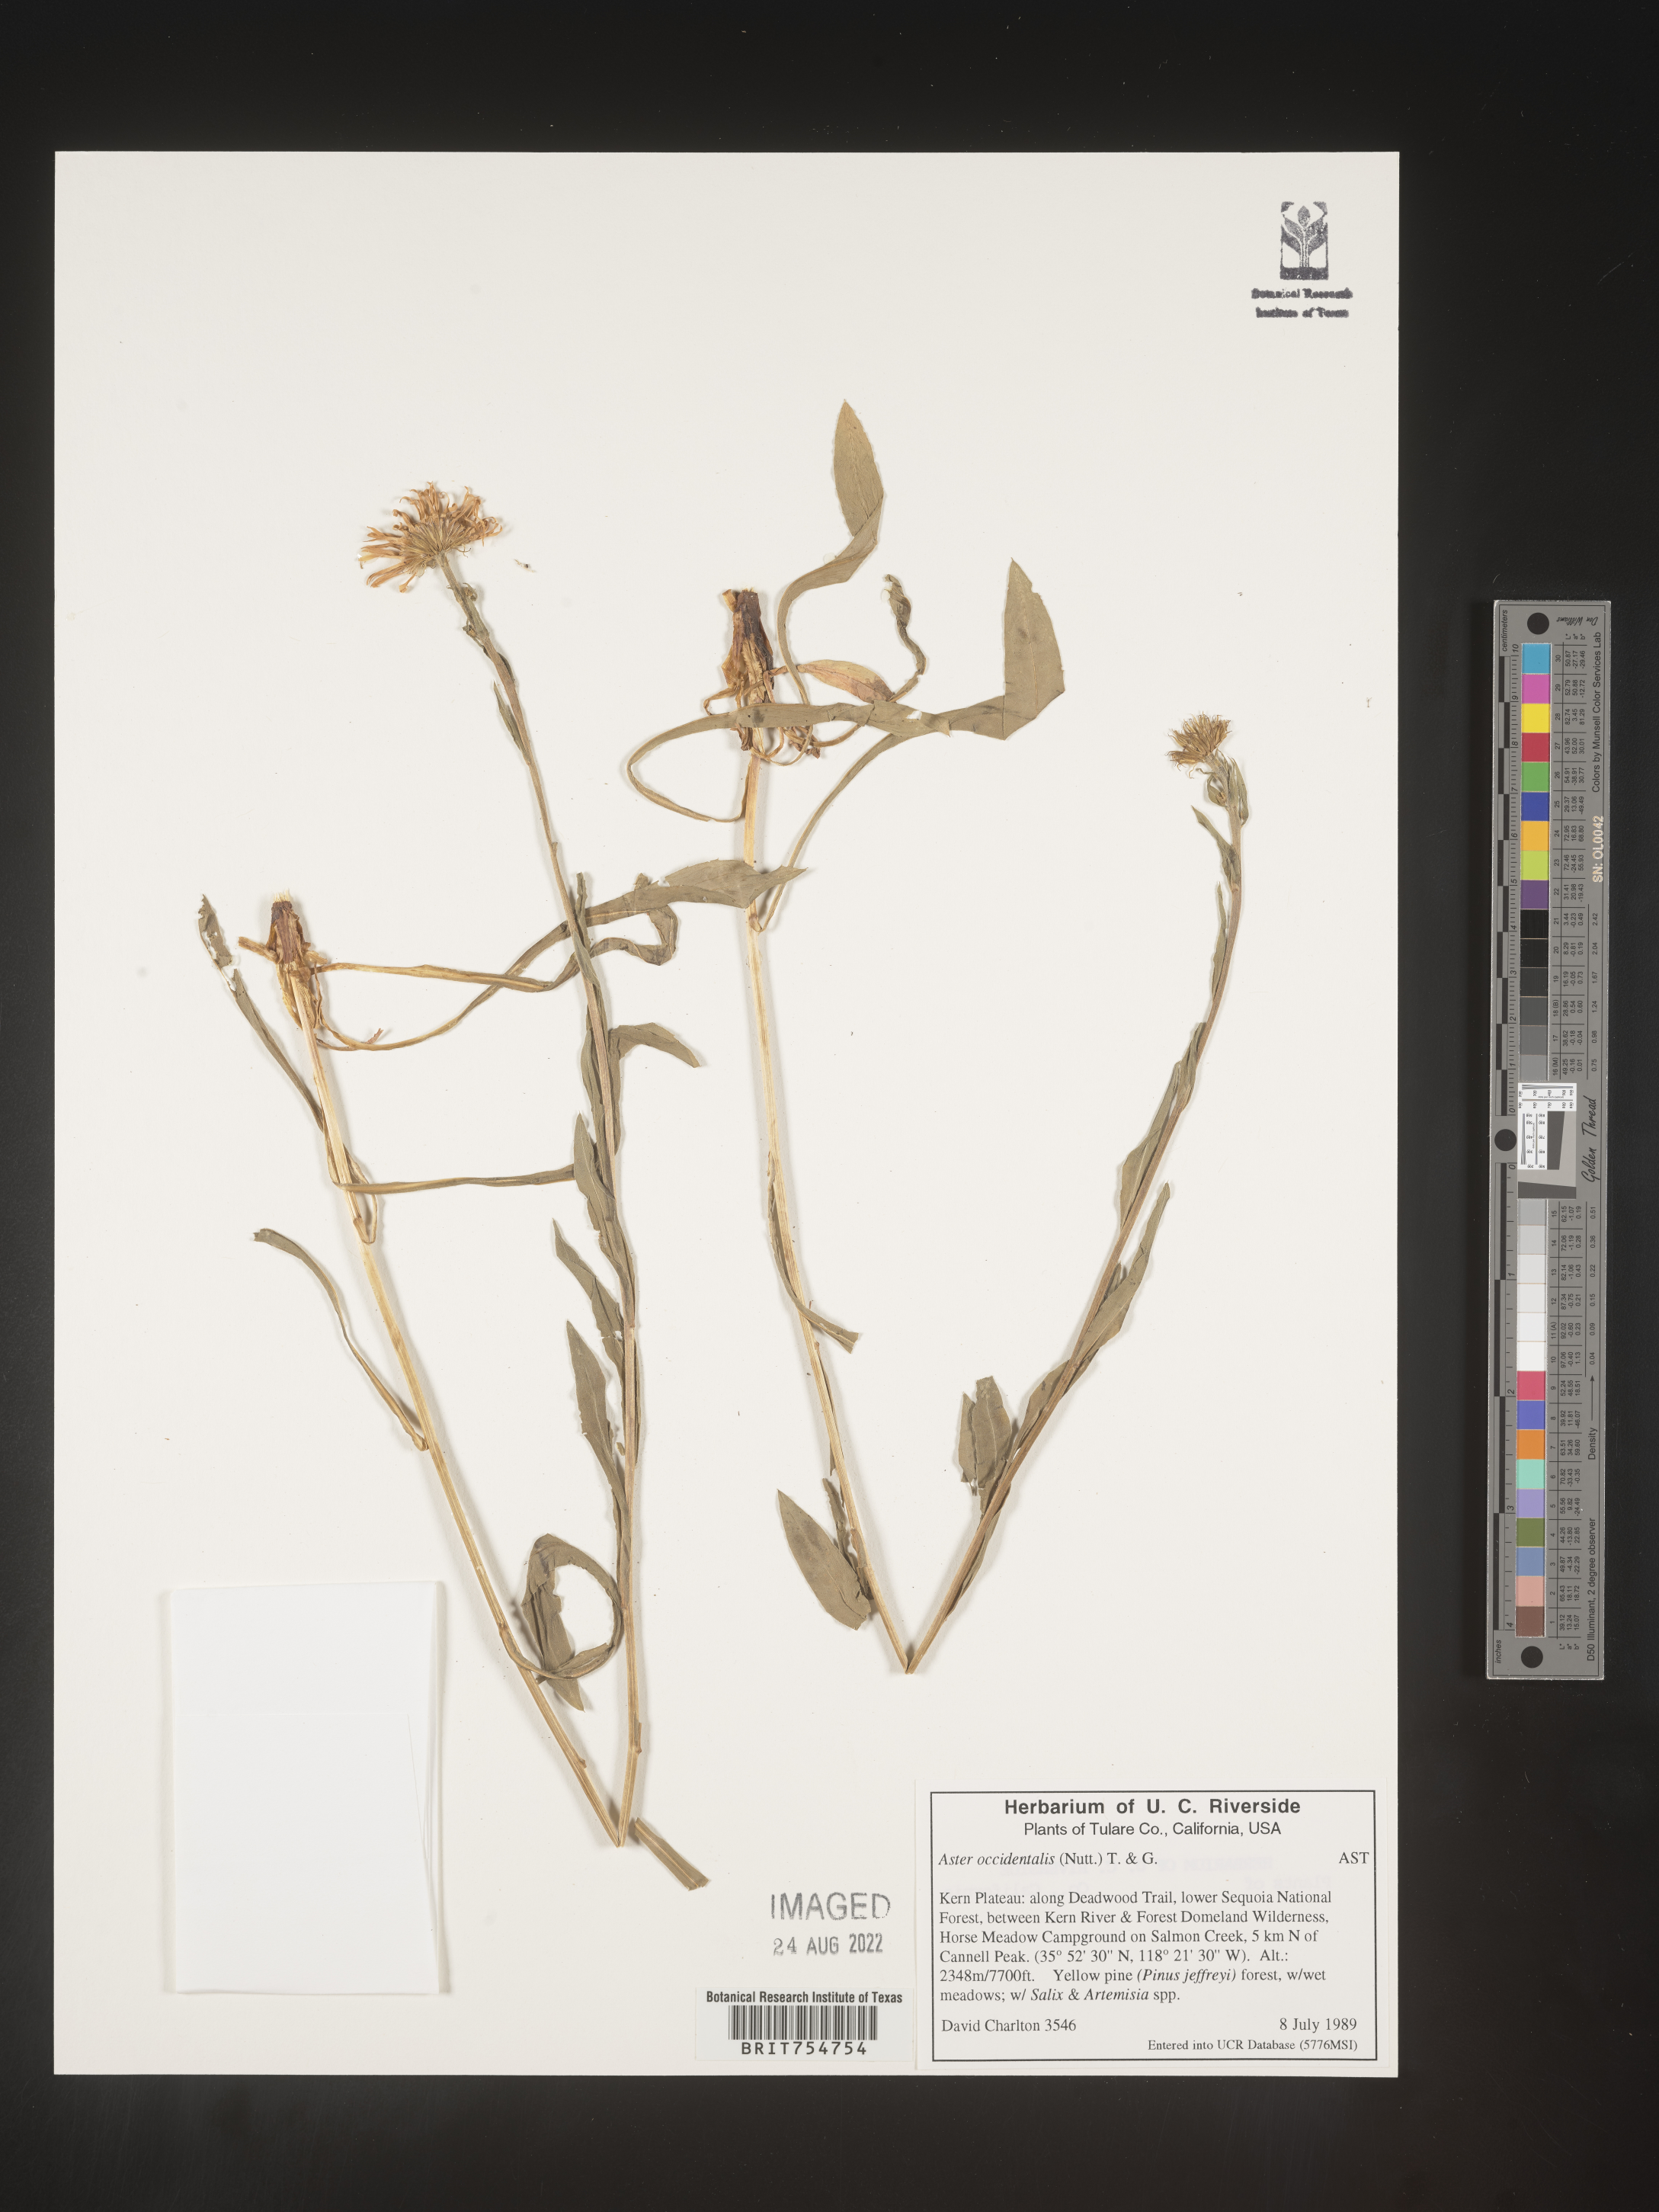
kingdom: Plantae
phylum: Tracheophyta
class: Magnoliopsida
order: Asterales
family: Asteraceae
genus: Symphyotrichum
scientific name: Symphyotrichum
